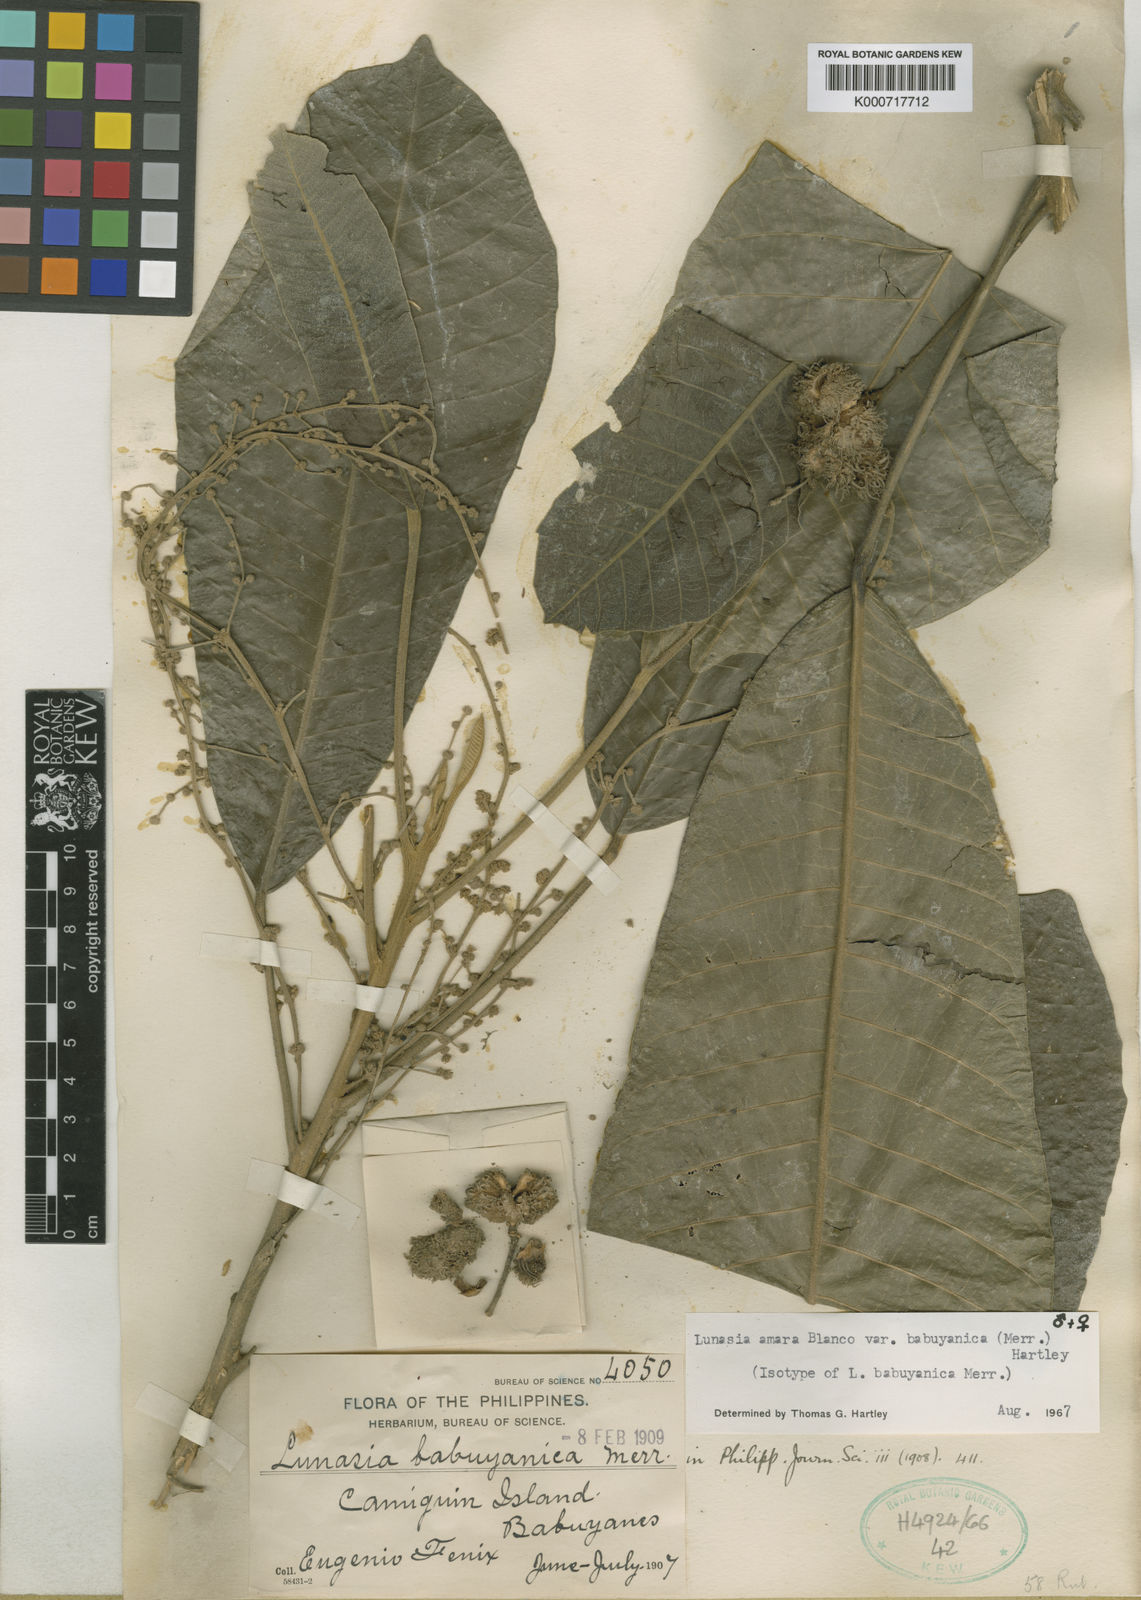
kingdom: Plantae
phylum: Tracheophyta
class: Magnoliopsida
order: Sapindales
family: Rutaceae
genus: Lunasia
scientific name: Lunasia amara
